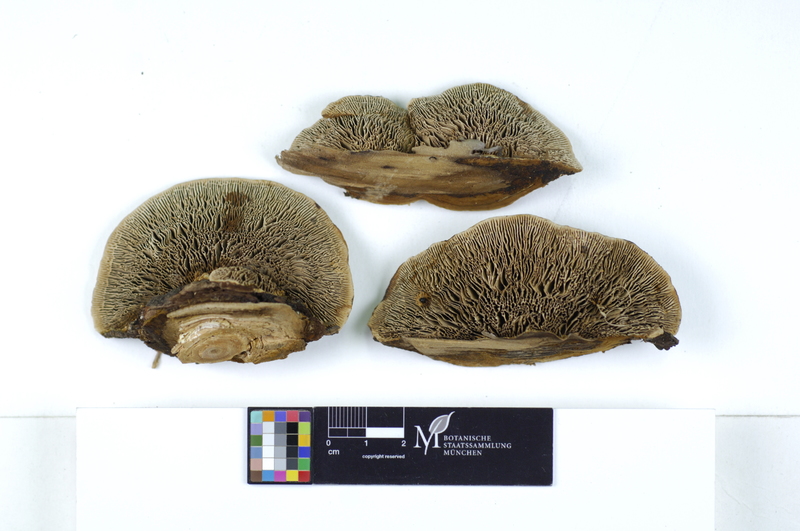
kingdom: Fungi
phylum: Basidiomycota
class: Agaricomycetes
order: Gloeophyllales
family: Gloeophyllaceae
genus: Gloeophyllum
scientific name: Gloeophyllum sepiarium
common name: Conifer mazegill
